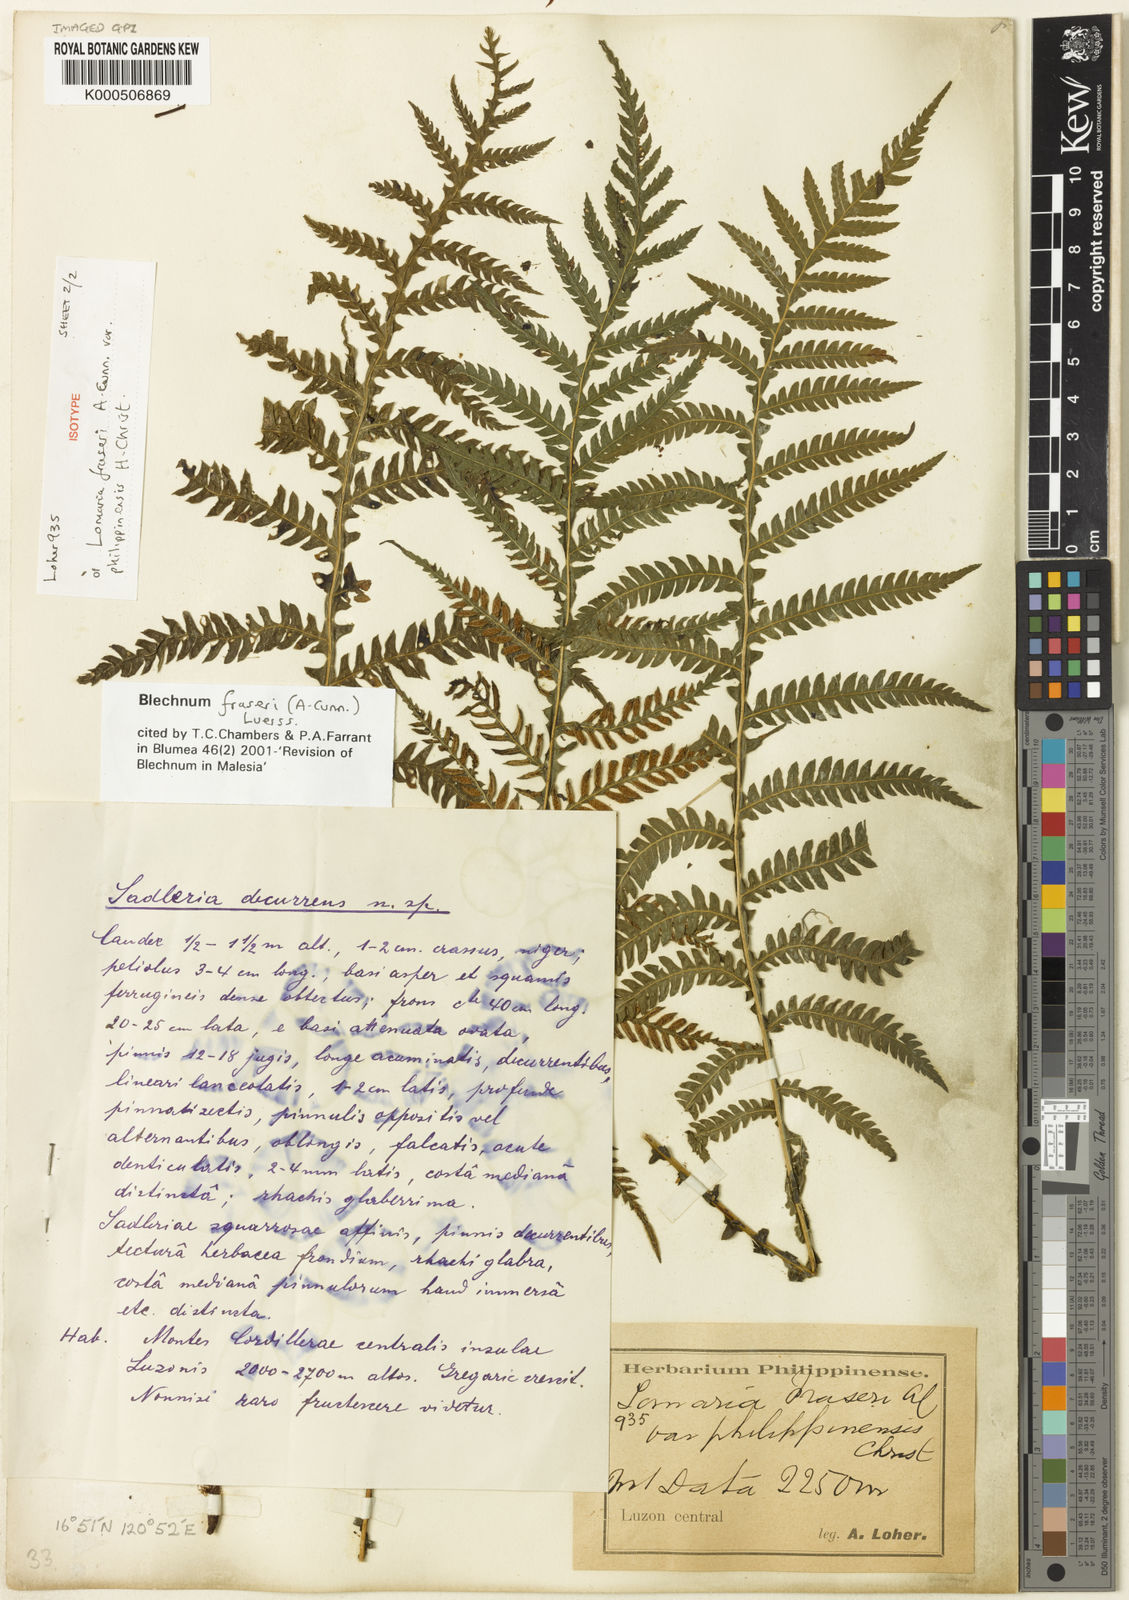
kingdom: Plantae
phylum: Tracheophyta
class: Polypodiopsida
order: Polypodiales
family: Blechnaceae
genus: Diploblechnum
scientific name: Diploblechnum fraseri
